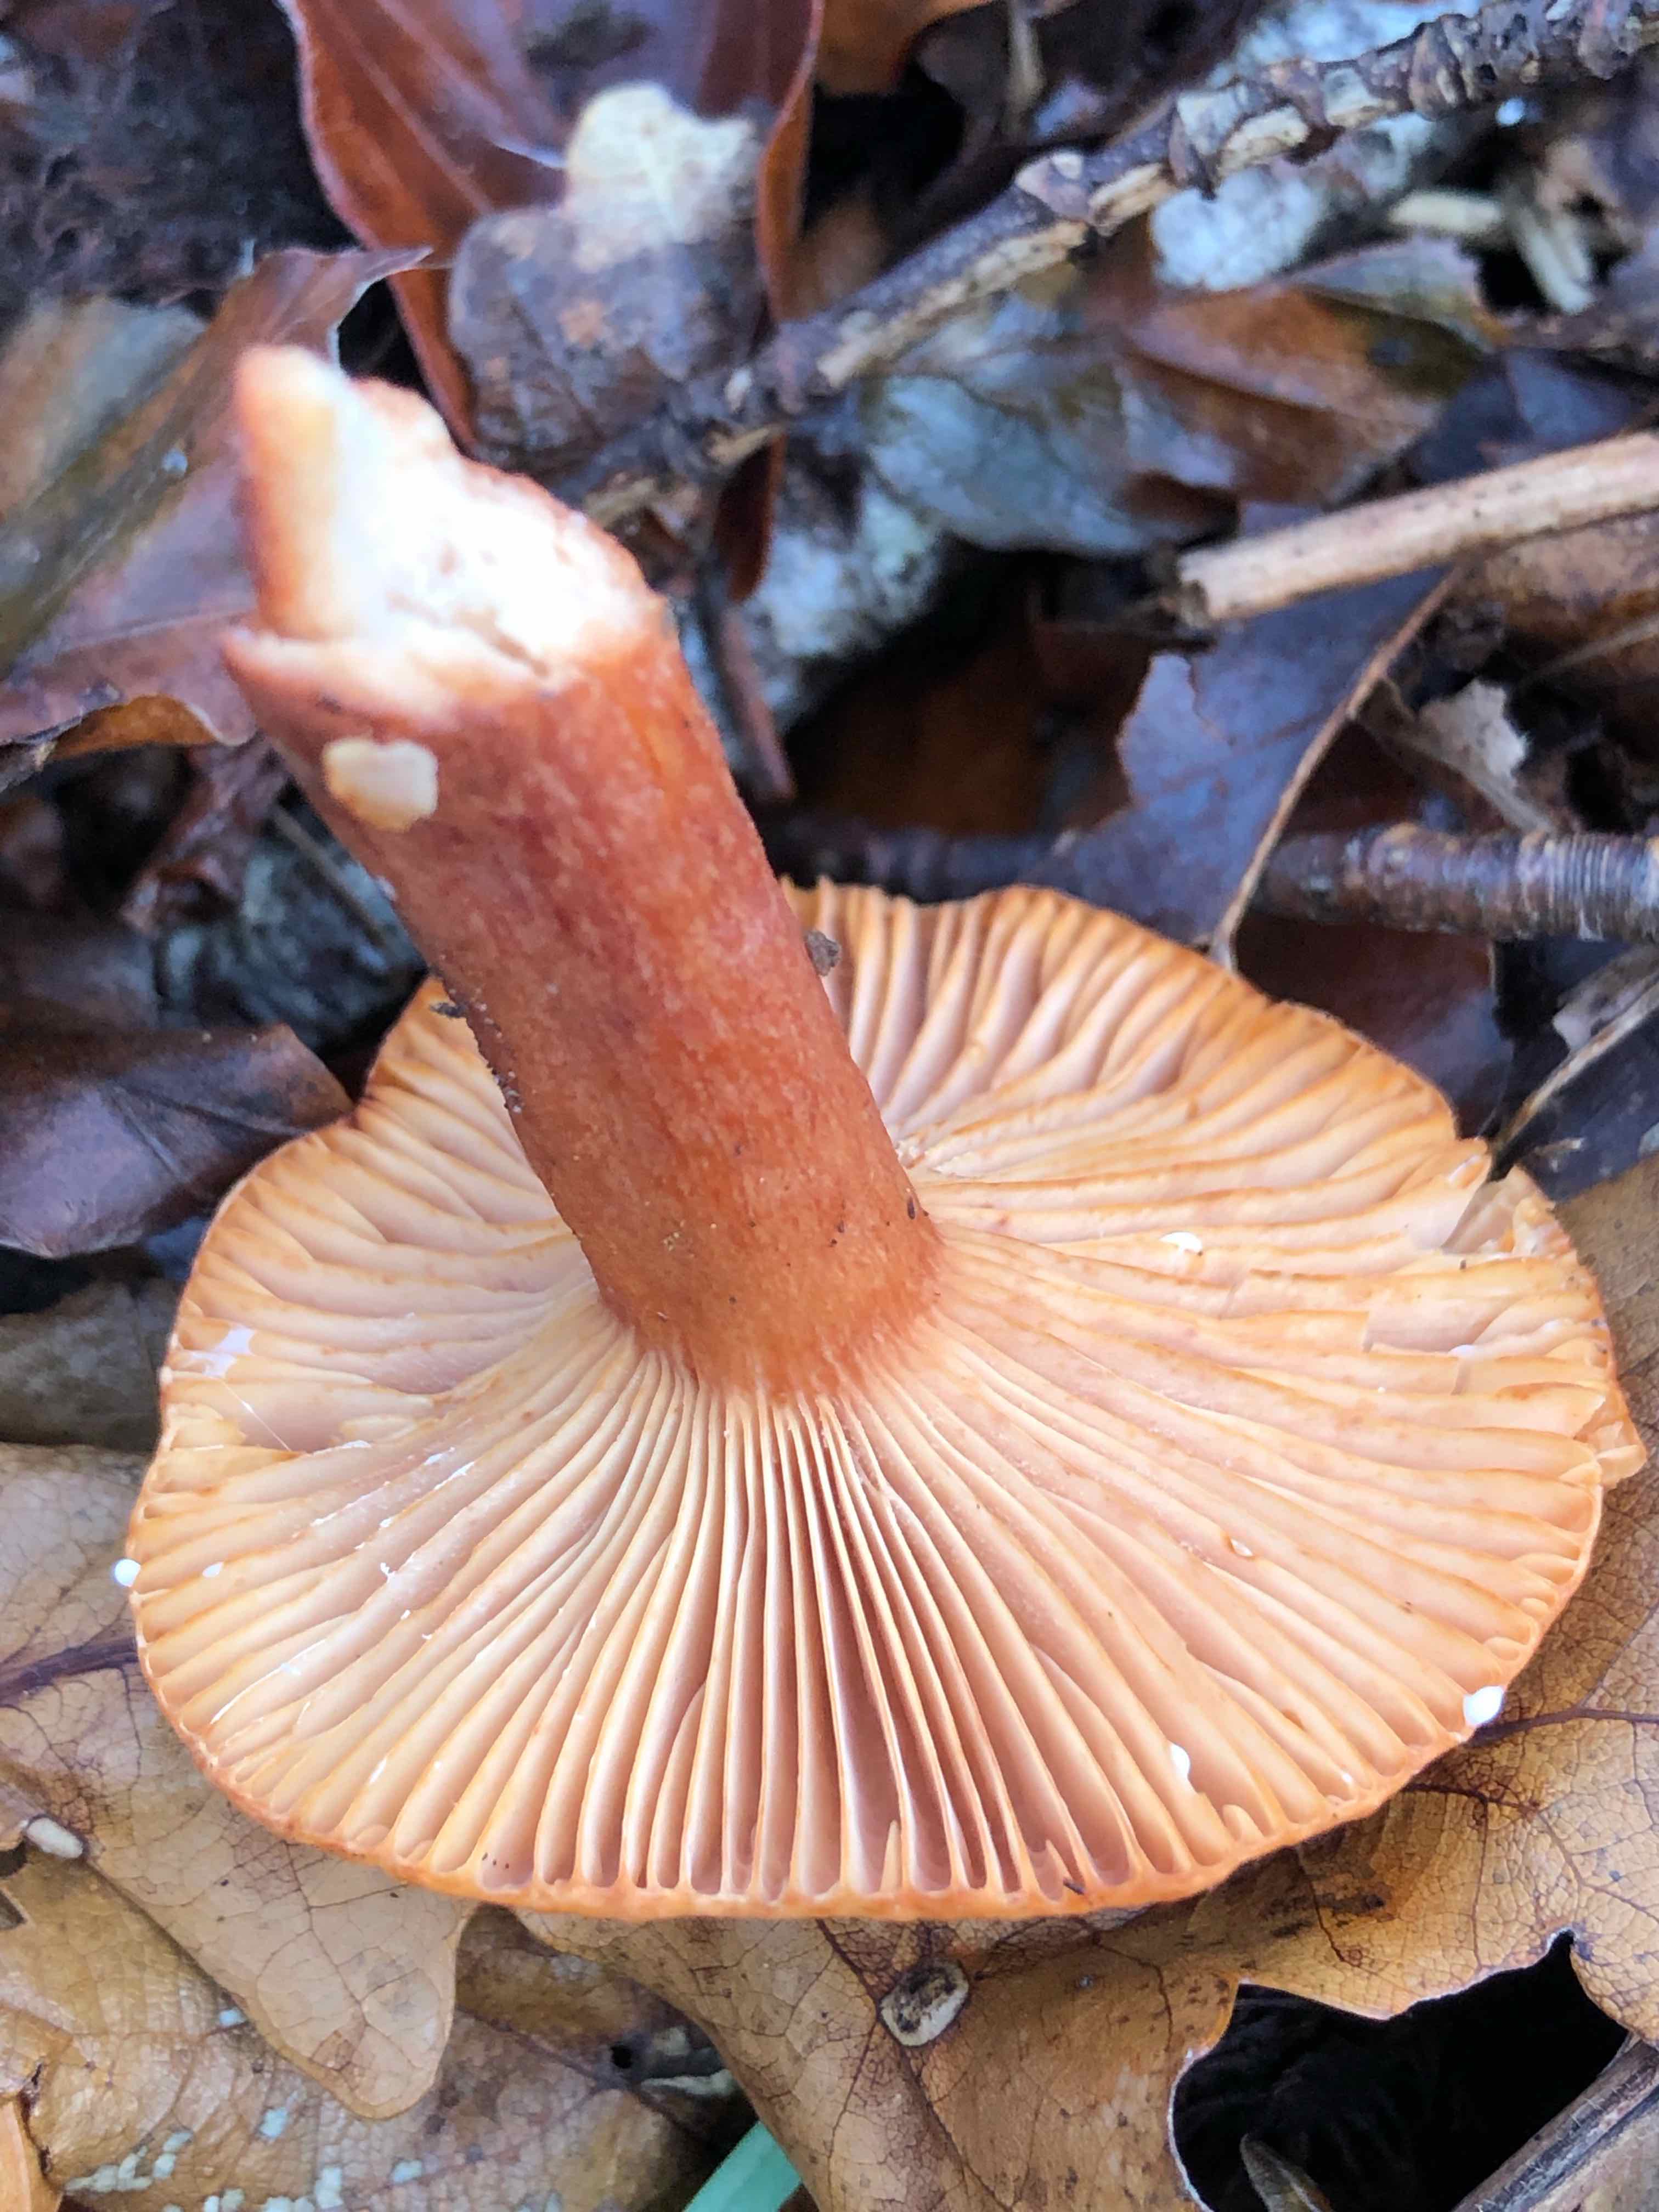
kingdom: Fungi
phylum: Basidiomycota
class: Agaricomycetes
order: Russulales
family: Russulaceae
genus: Lactarius
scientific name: Lactarius fulvissimus
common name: ræve-mælkehat
